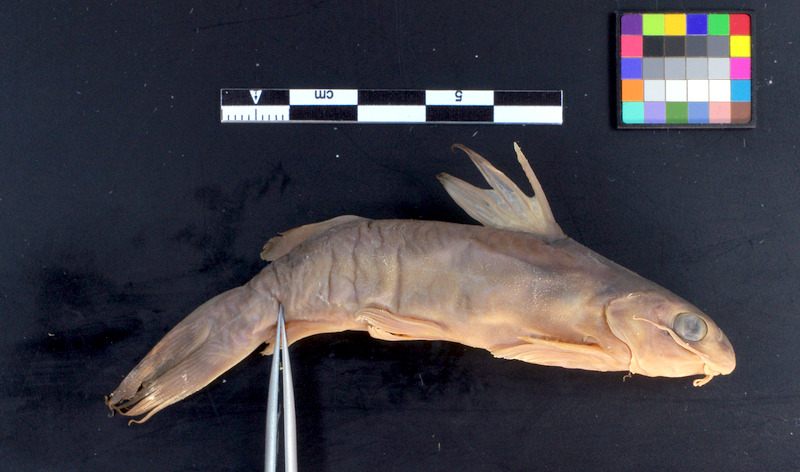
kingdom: Animalia
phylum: Chordata
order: Siluriformes
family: Claroteidae
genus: Chrysichthys
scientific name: Chrysichthys auratus
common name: Golden nile catfish
